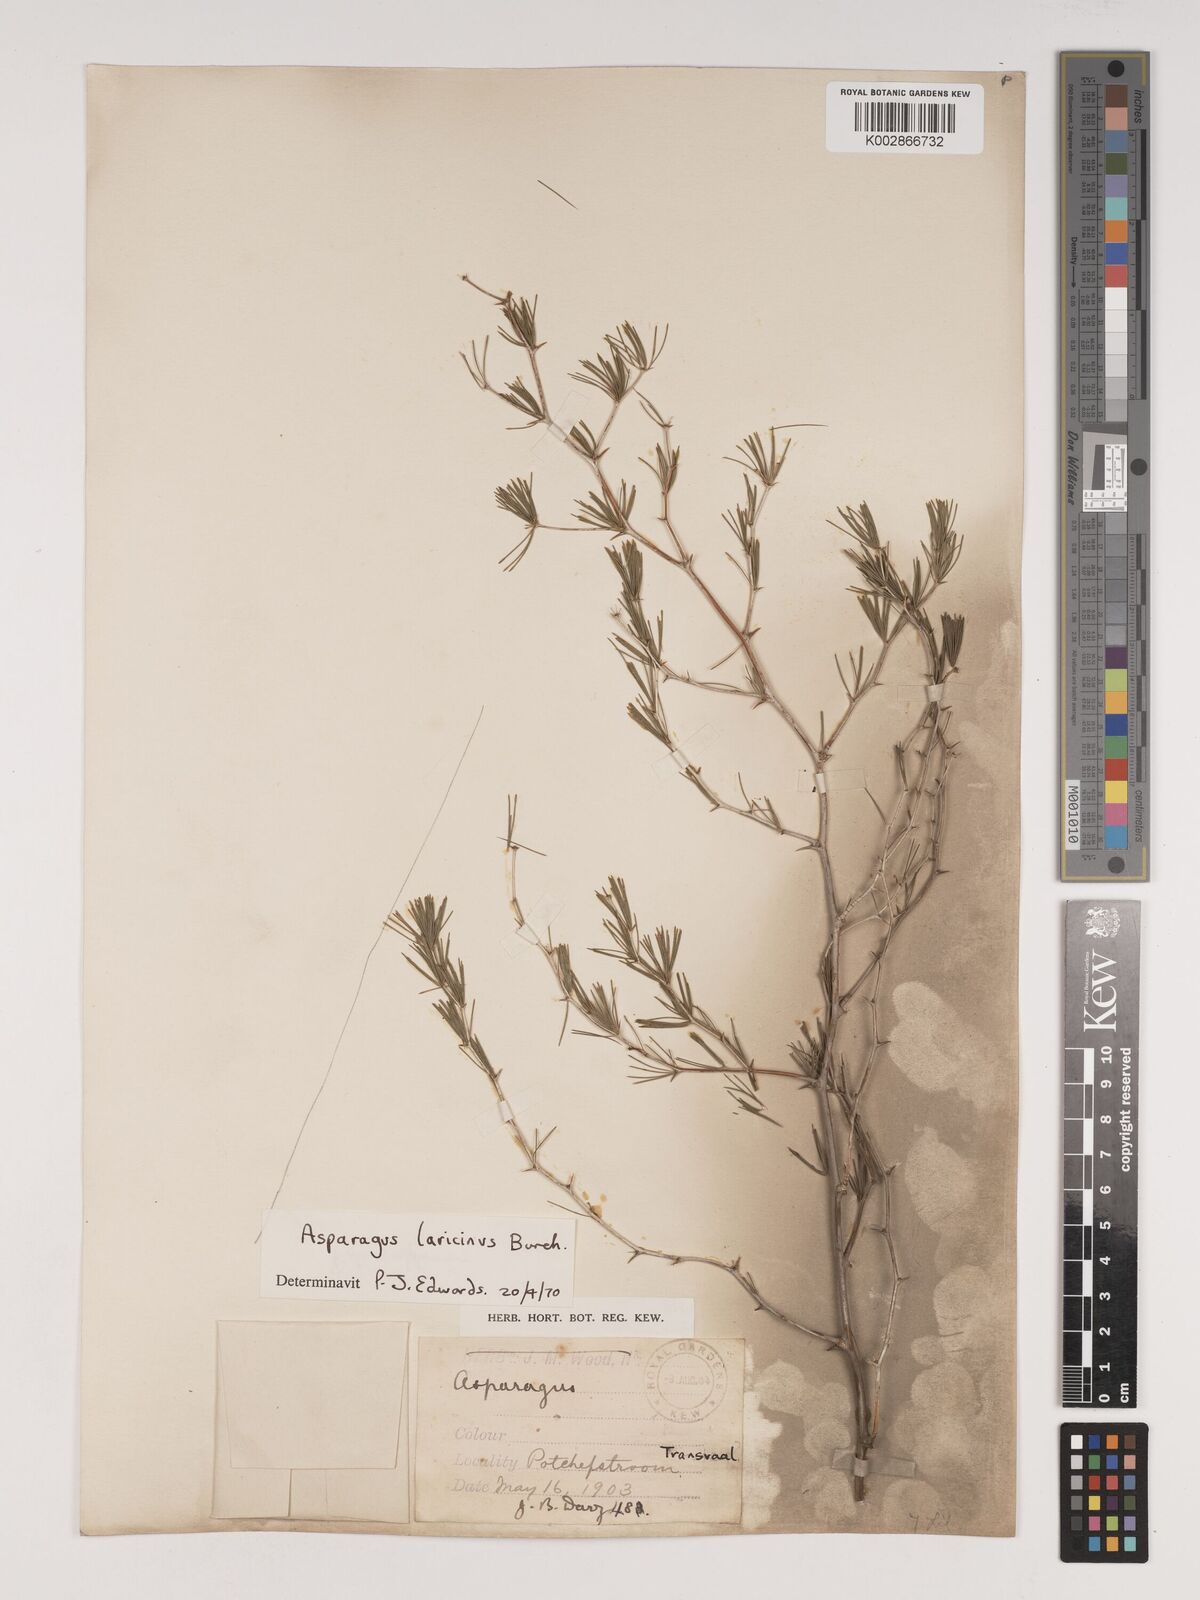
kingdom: Plantae
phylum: Tracheophyta
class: Liliopsida
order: Asparagales
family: Asparagaceae
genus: Asparagus
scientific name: Asparagus laricinus
